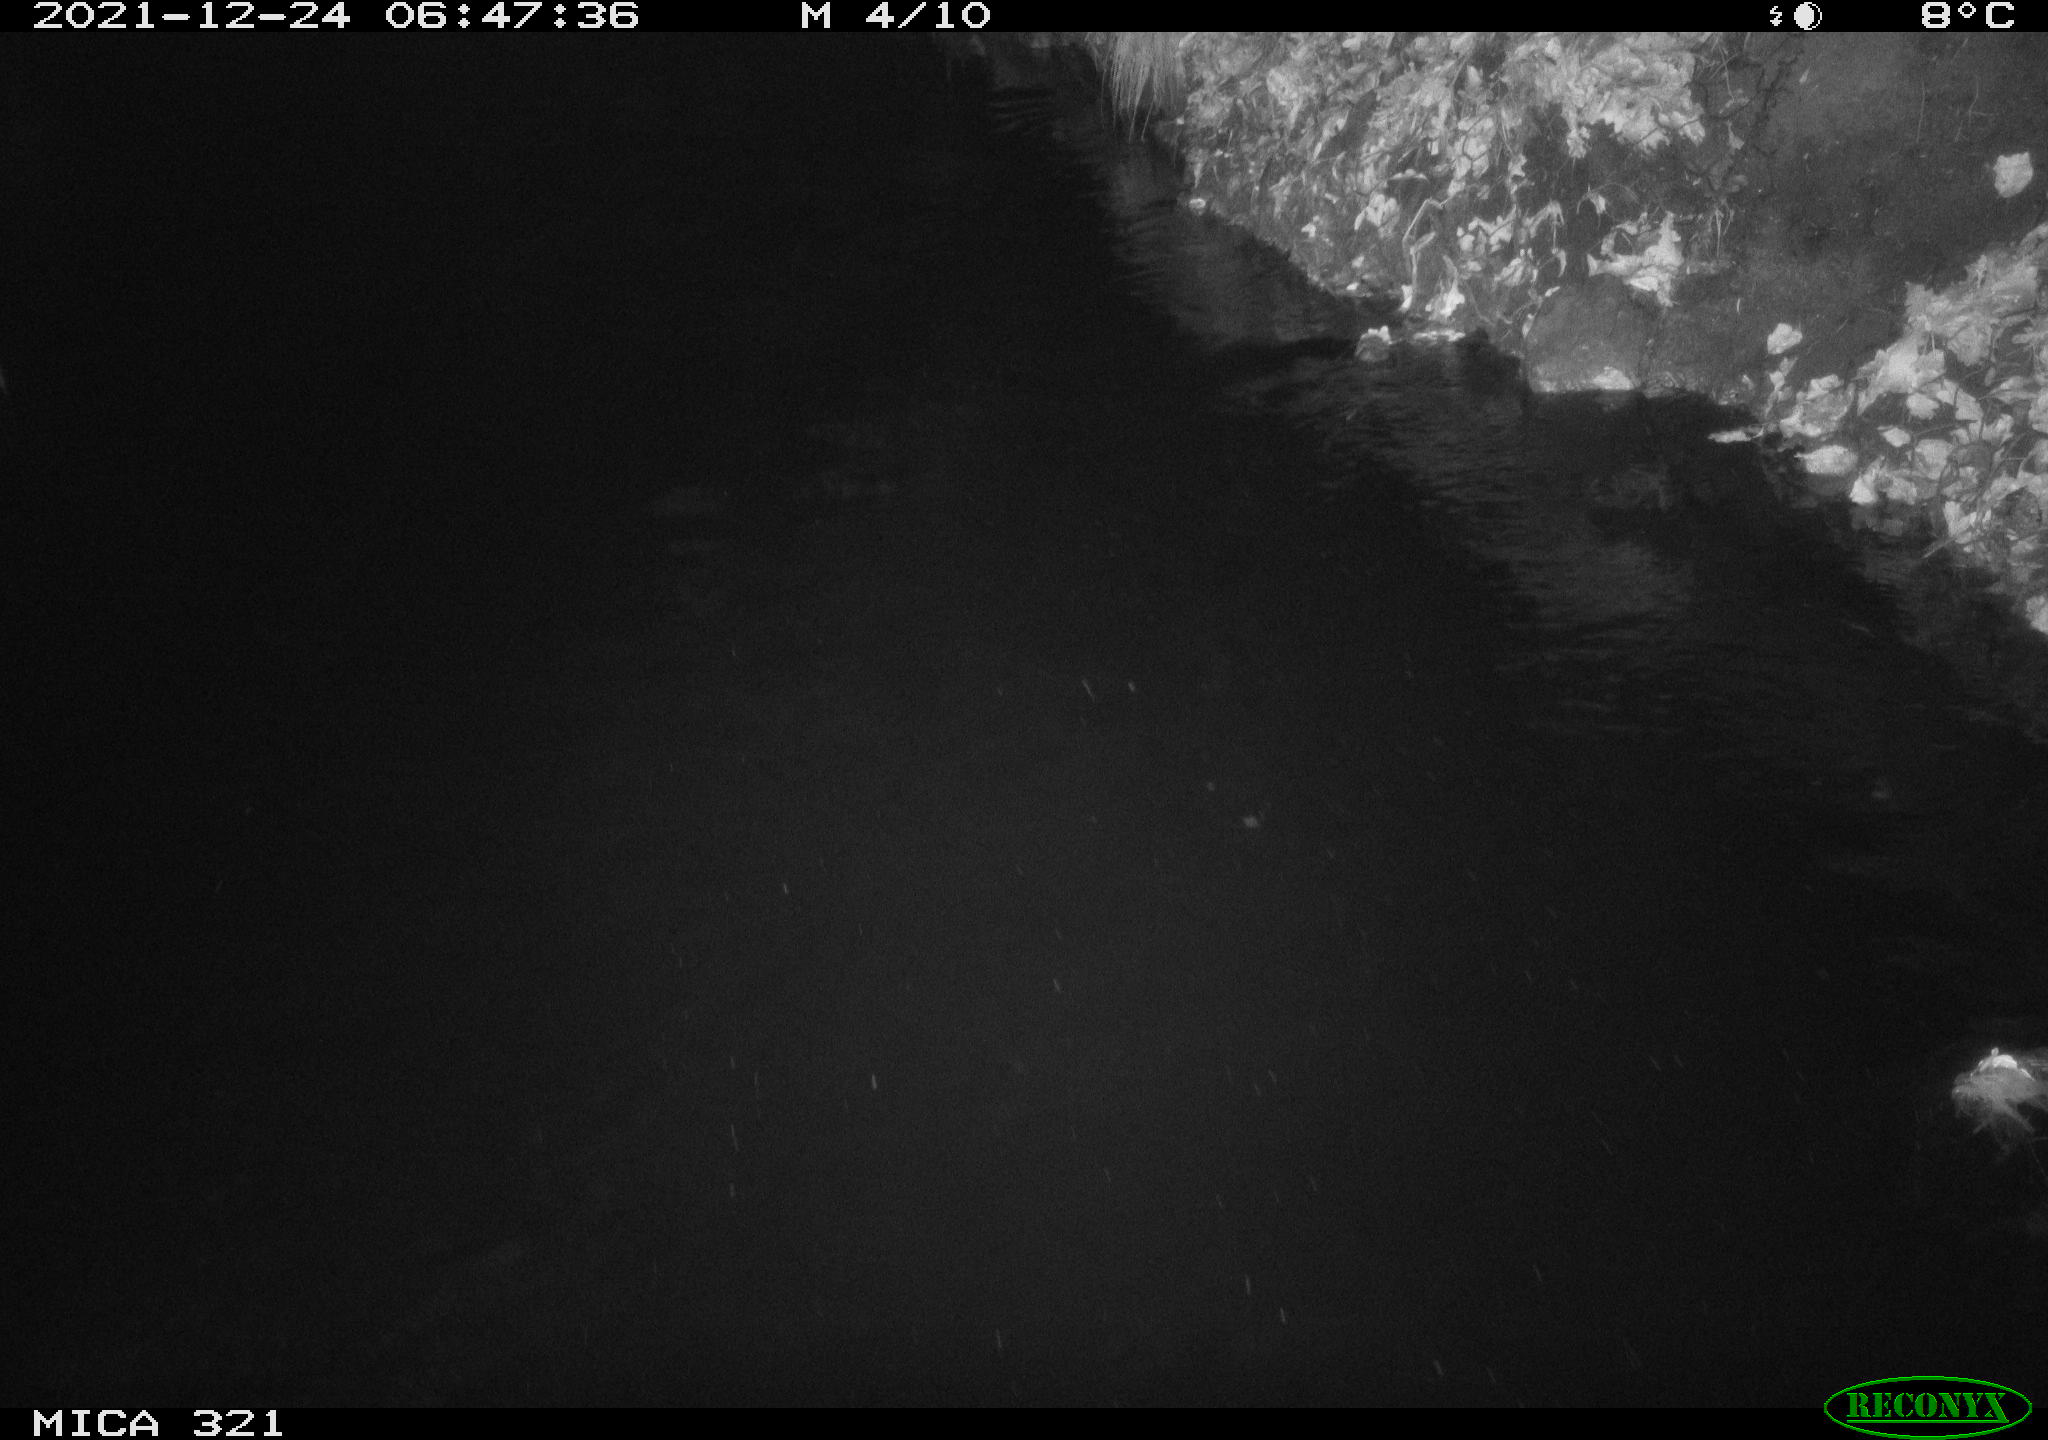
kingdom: Animalia
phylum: Chordata
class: Aves
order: Anseriformes
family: Anatidae
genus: Anas
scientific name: Anas
